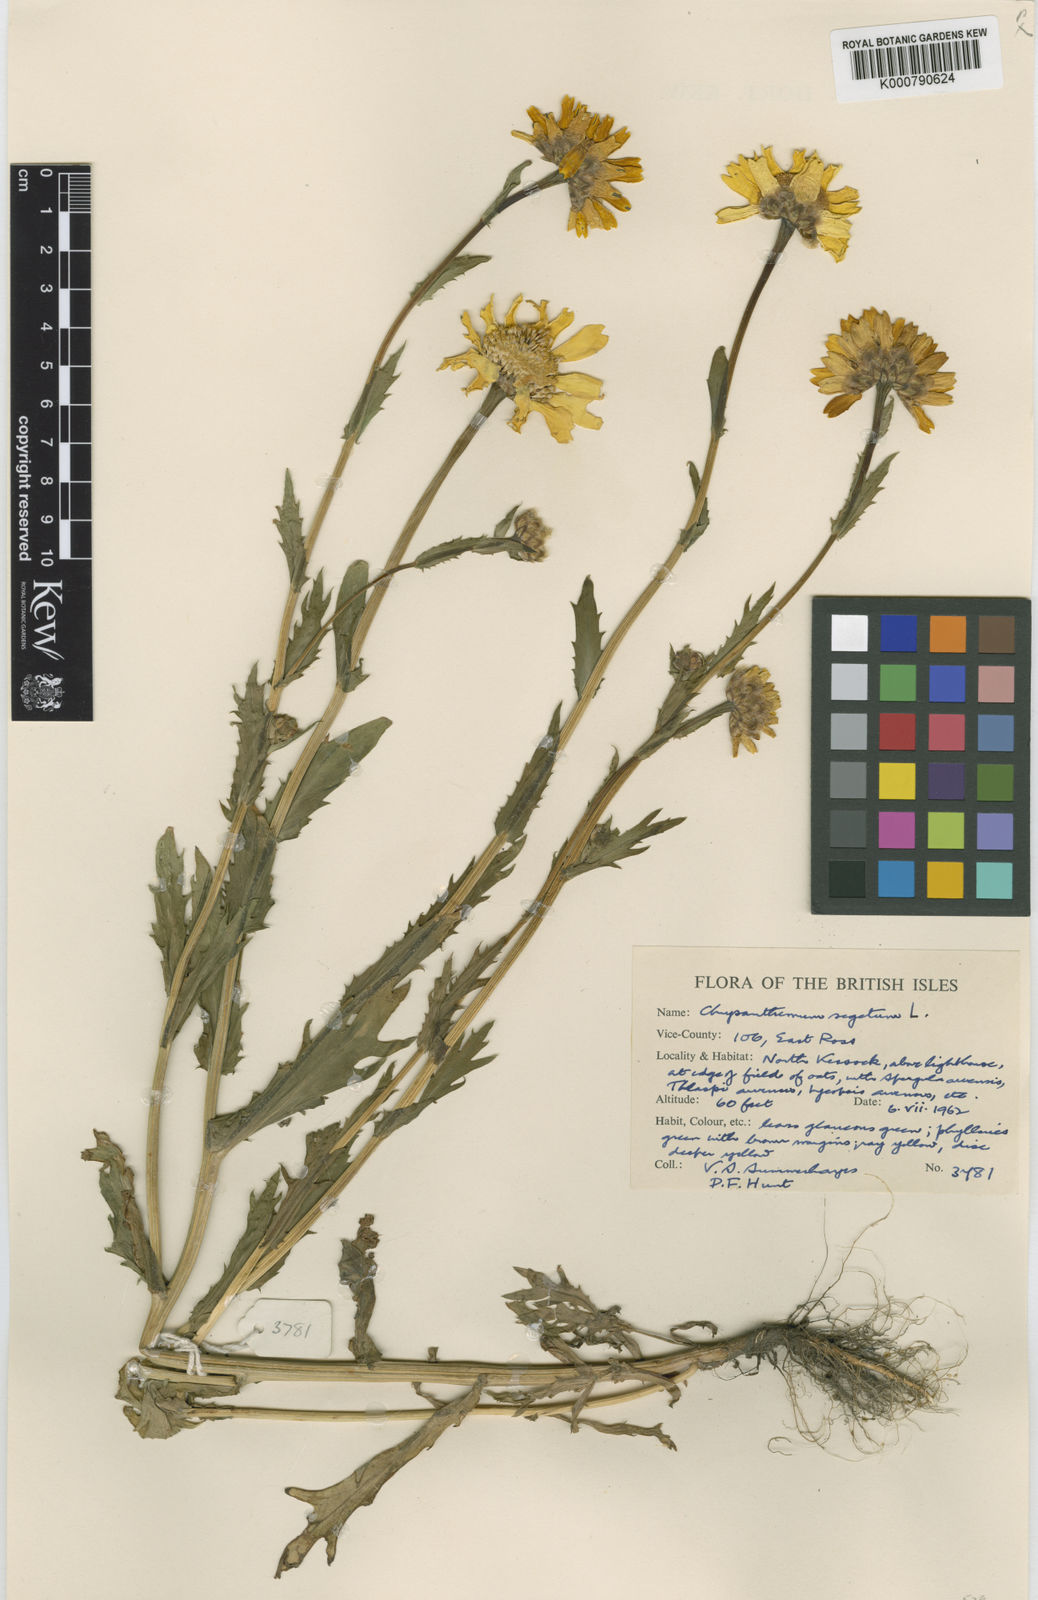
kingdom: Plantae
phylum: Tracheophyta
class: Magnoliopsida
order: Asterales
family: Asteraceae
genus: Glebionis
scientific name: Glebionis
